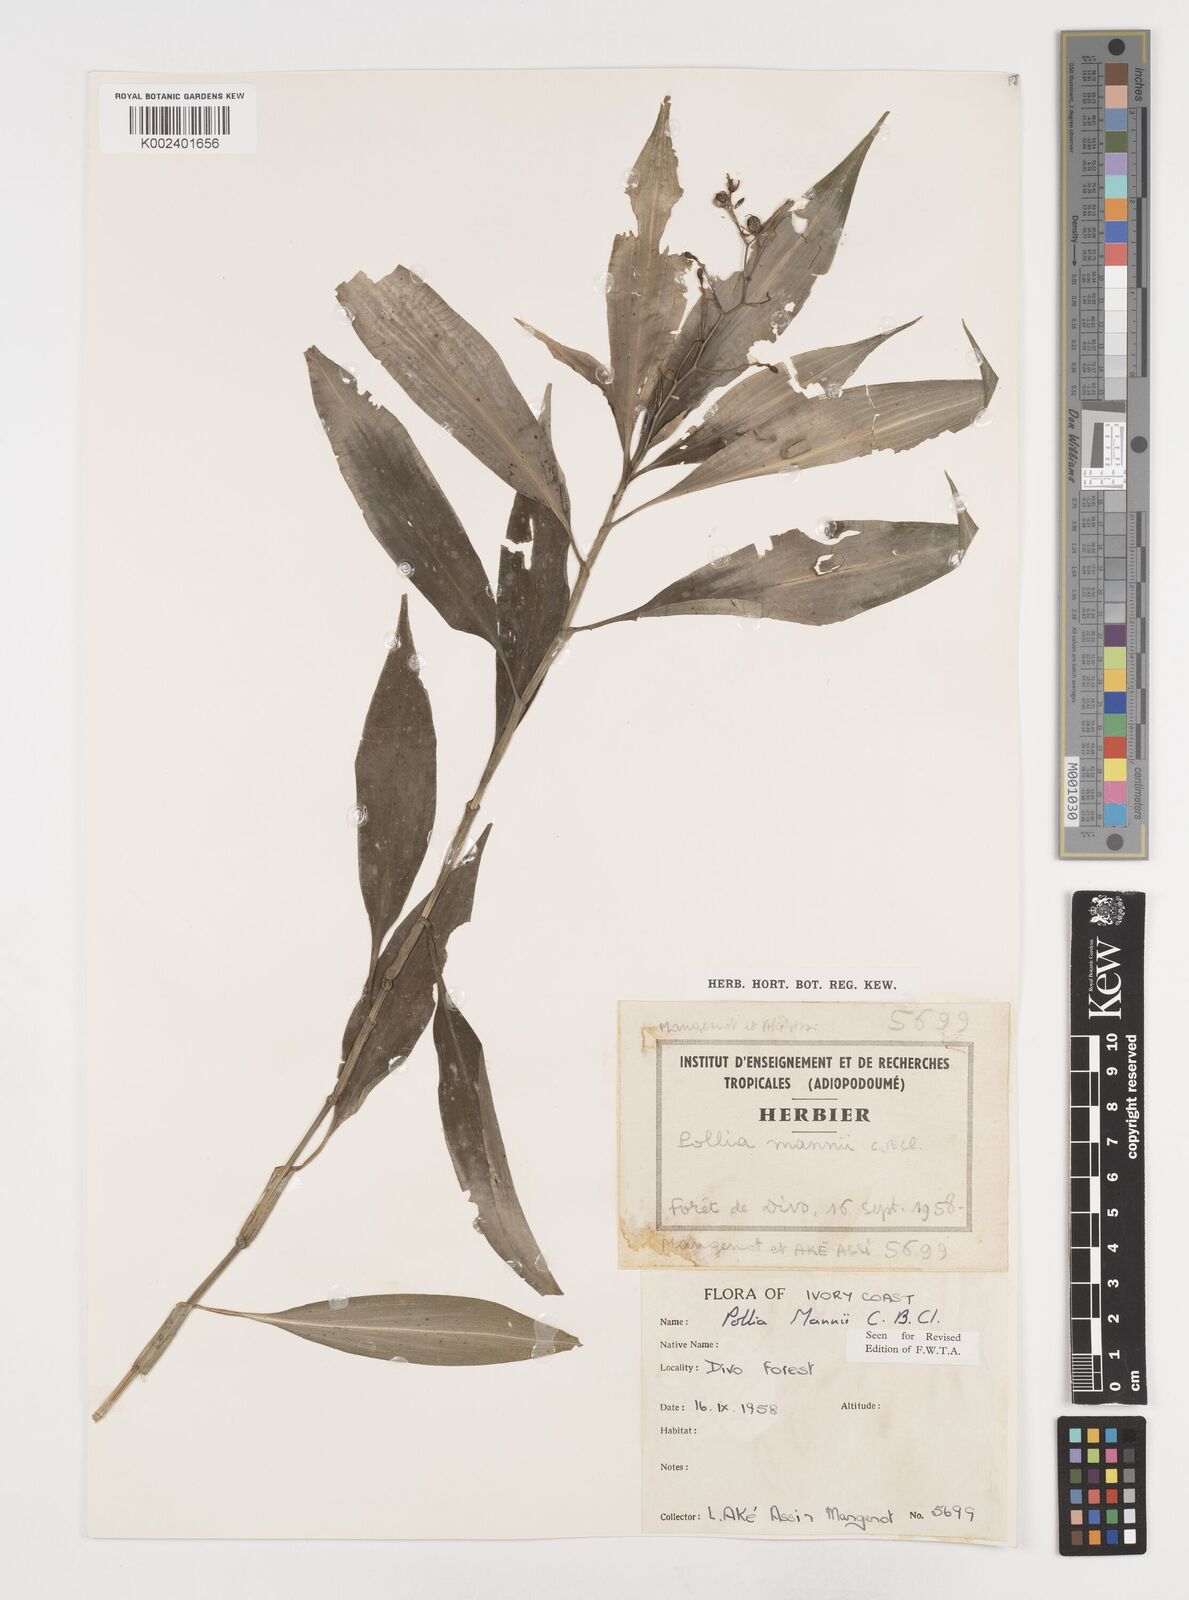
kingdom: Plantae
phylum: Tracheophyta
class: Liliopsida
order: Commelinales
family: Commelinaceae
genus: Pollia
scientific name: Pollia mannii
